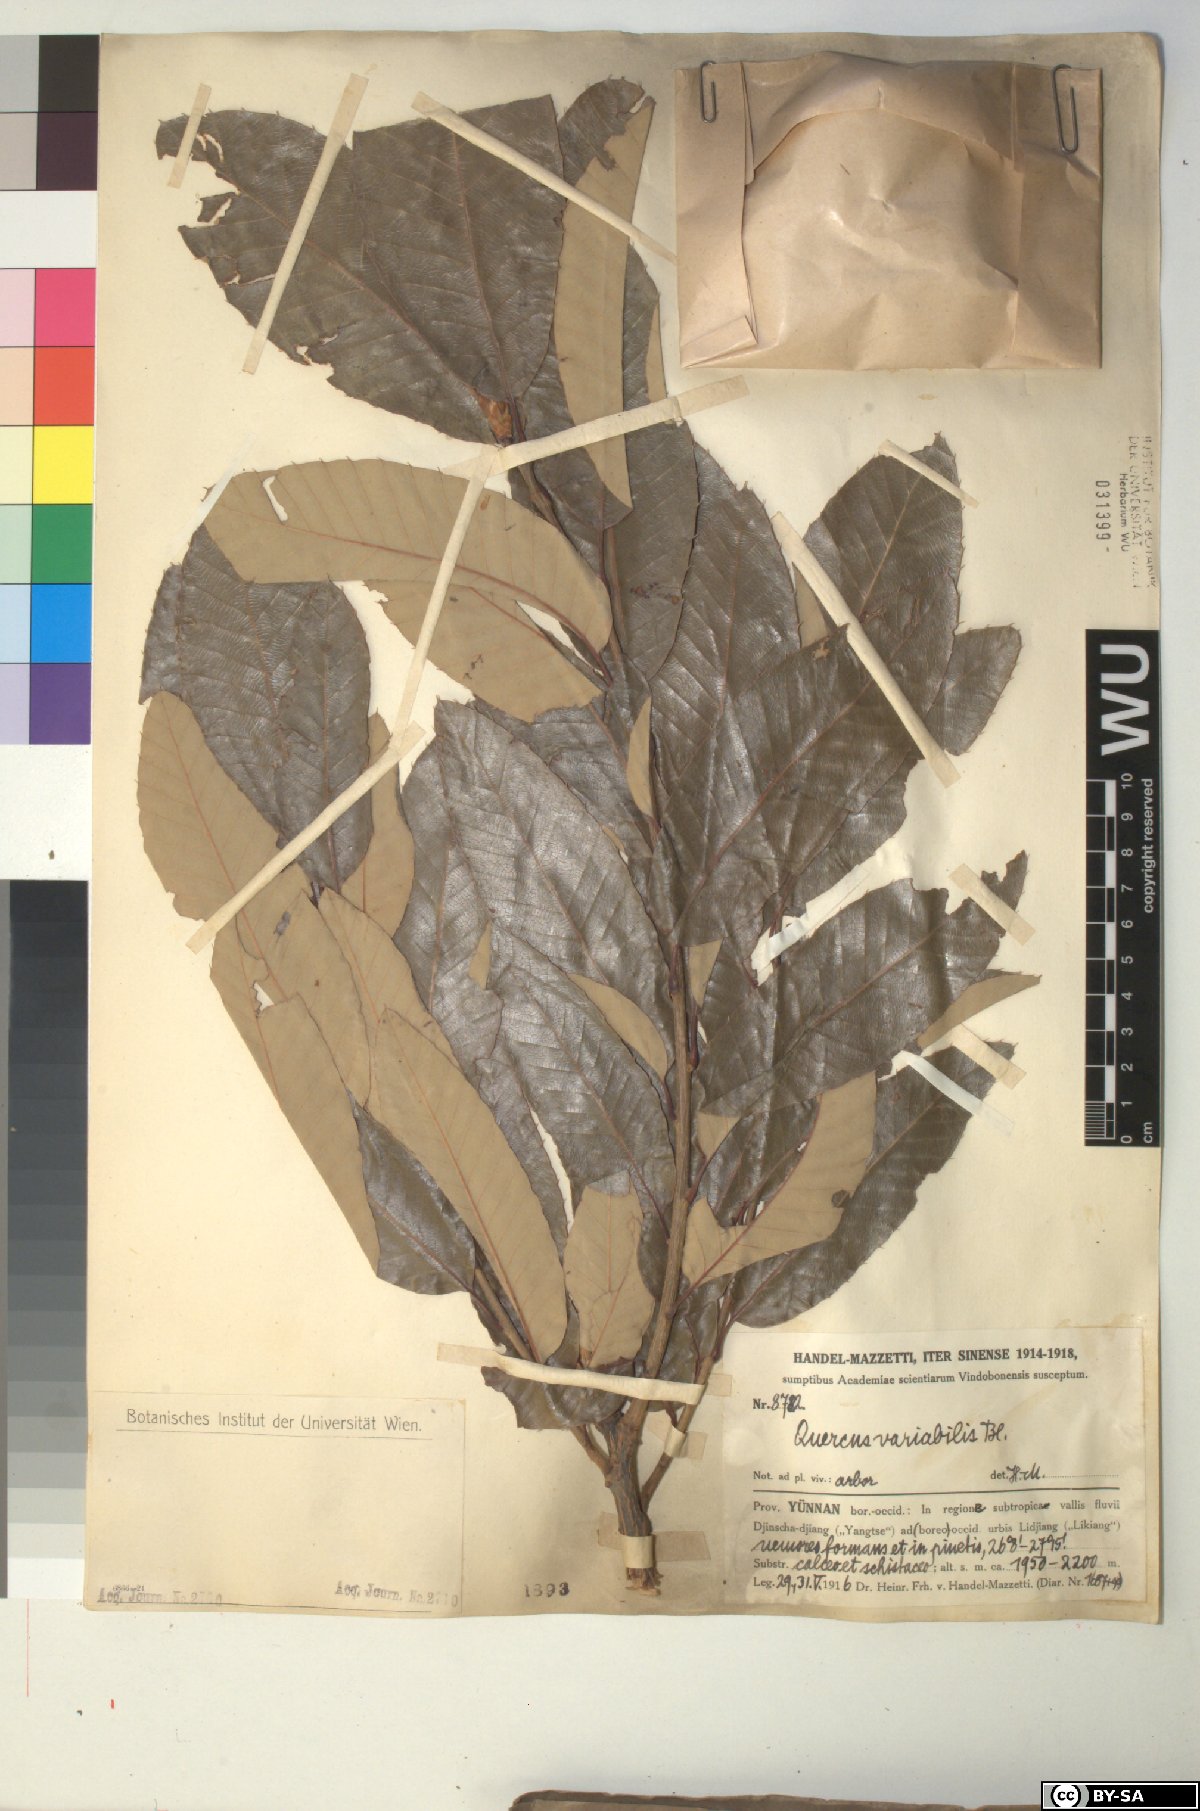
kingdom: Plantae
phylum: Tracheophyta
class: Magnoliopsida
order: Fagales
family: Fagaceae
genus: Quercus
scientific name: Quercus variabilis
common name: Chinese cork oak
